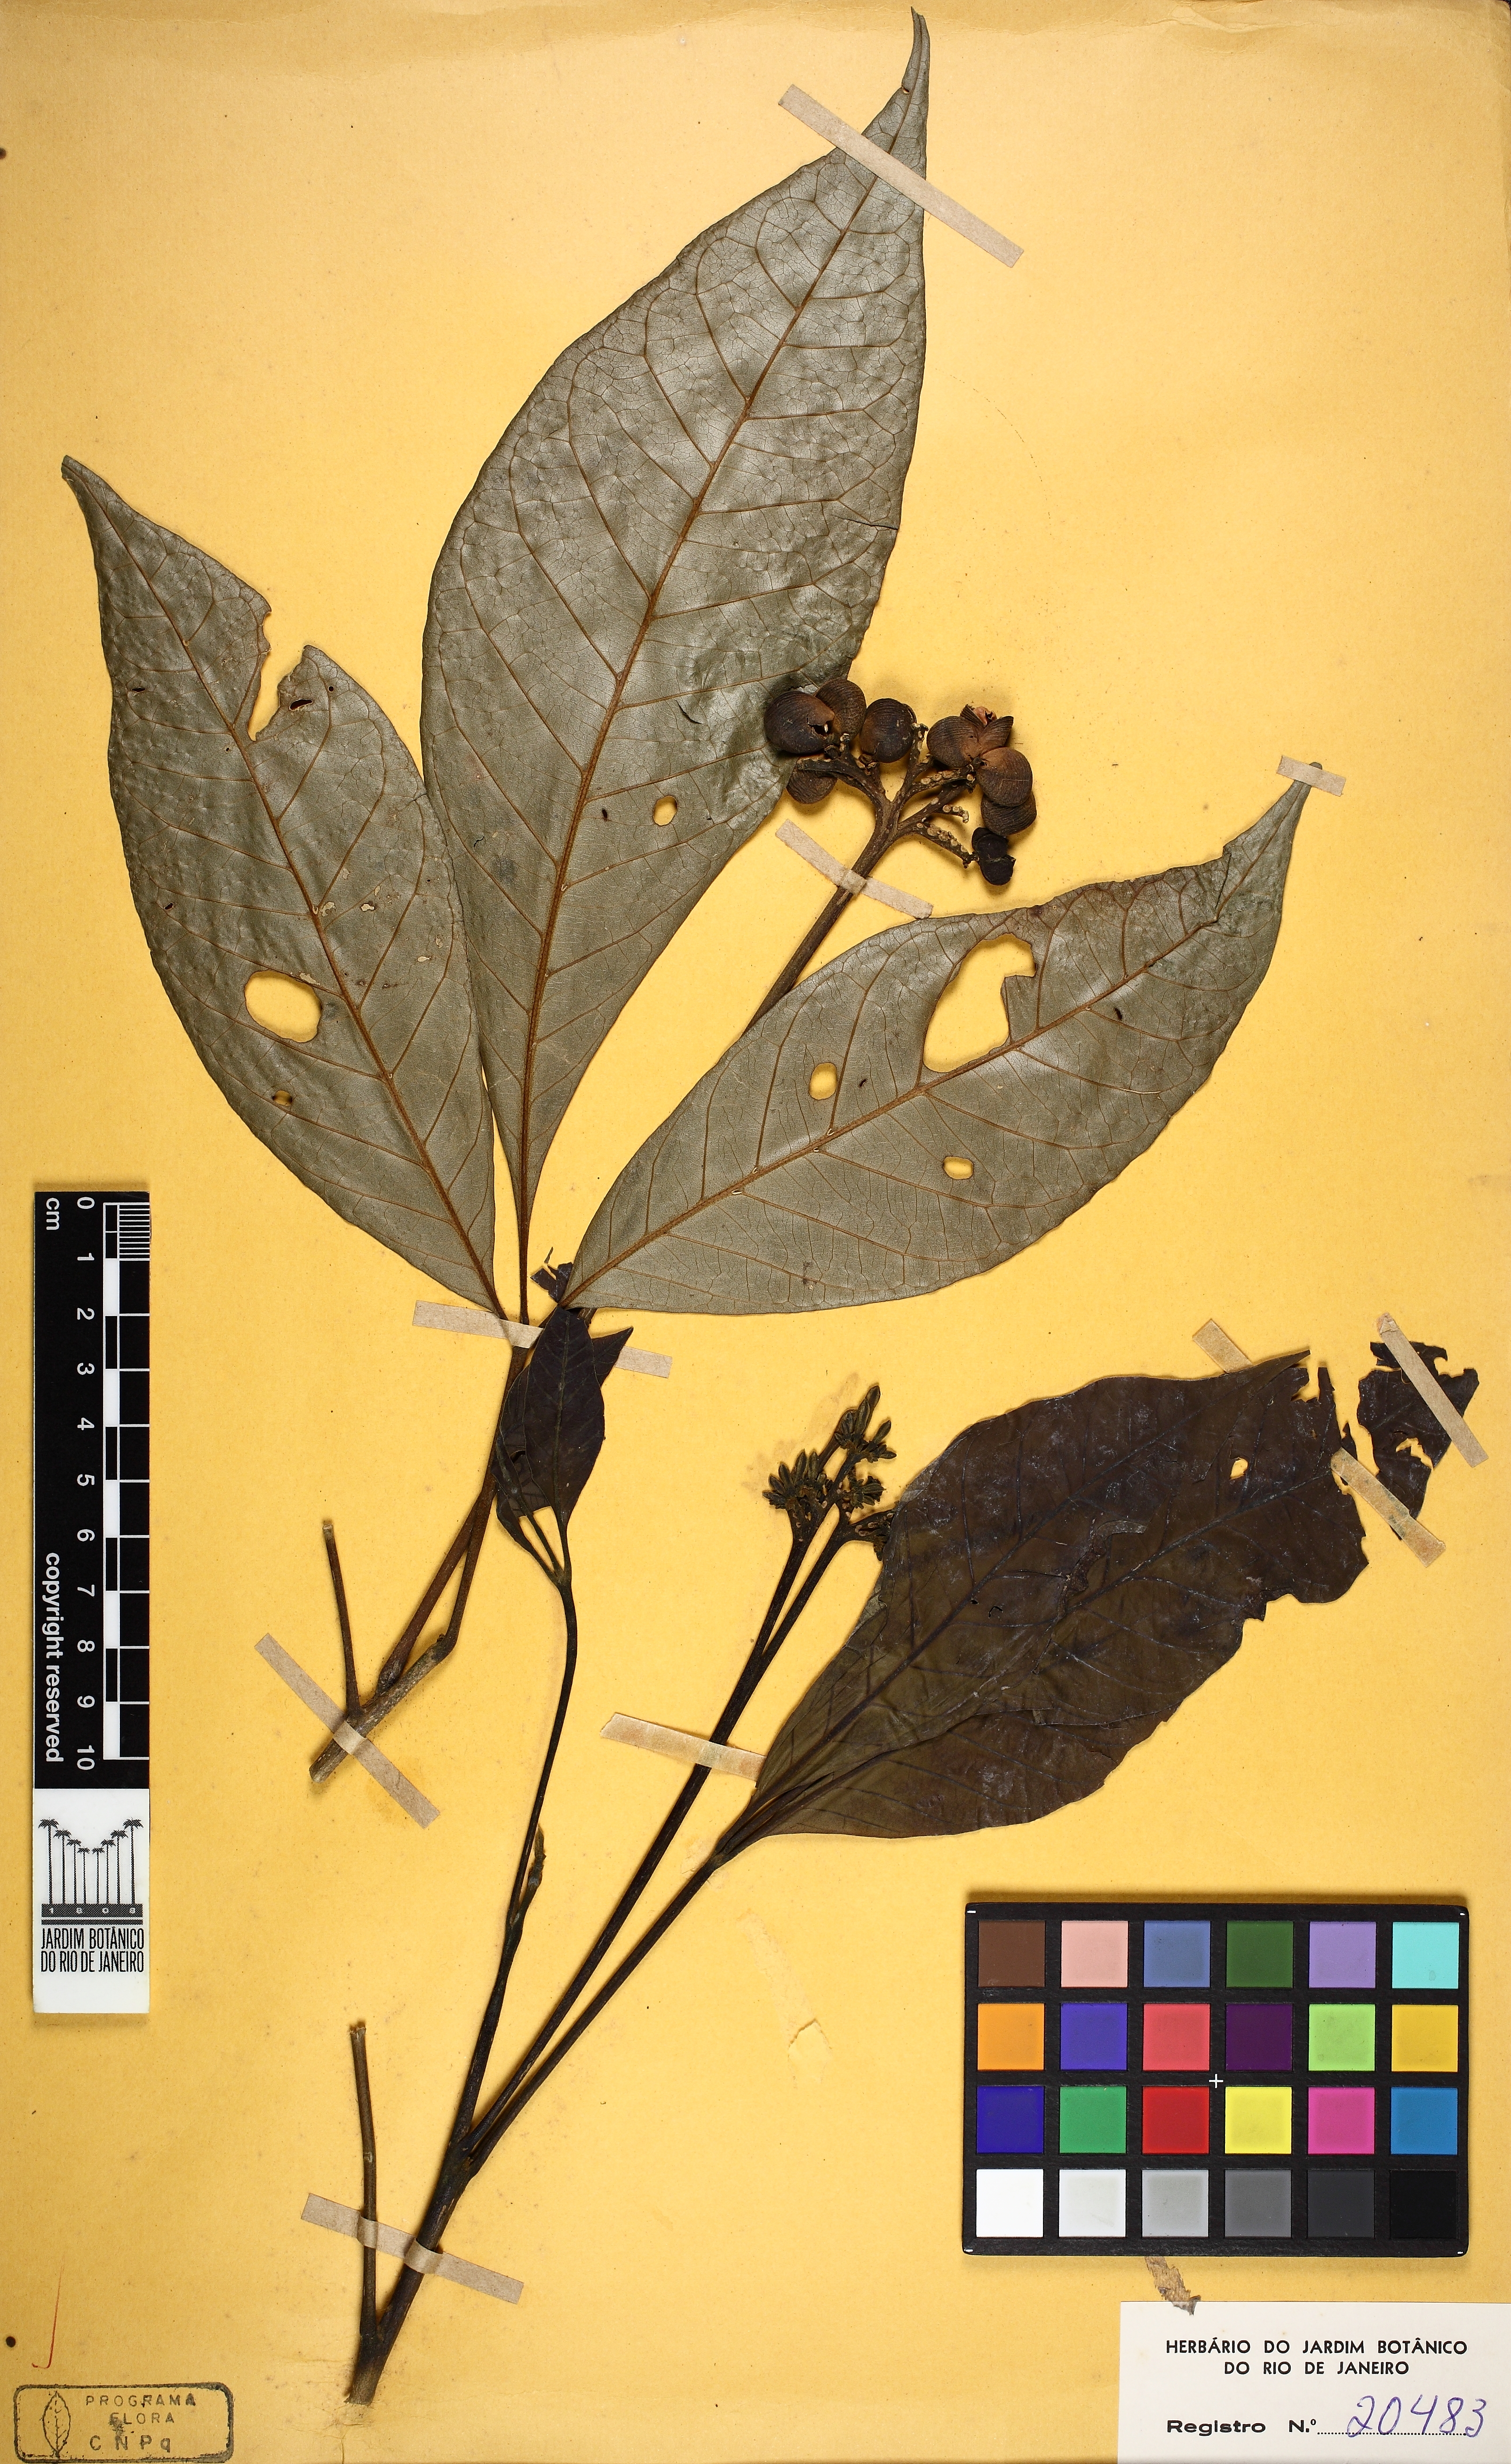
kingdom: Plantae
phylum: Tracheophyta
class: Magnoliopsida
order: Sapindales
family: Rutaceae
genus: Ticorea
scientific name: Ticorea tubiflora
